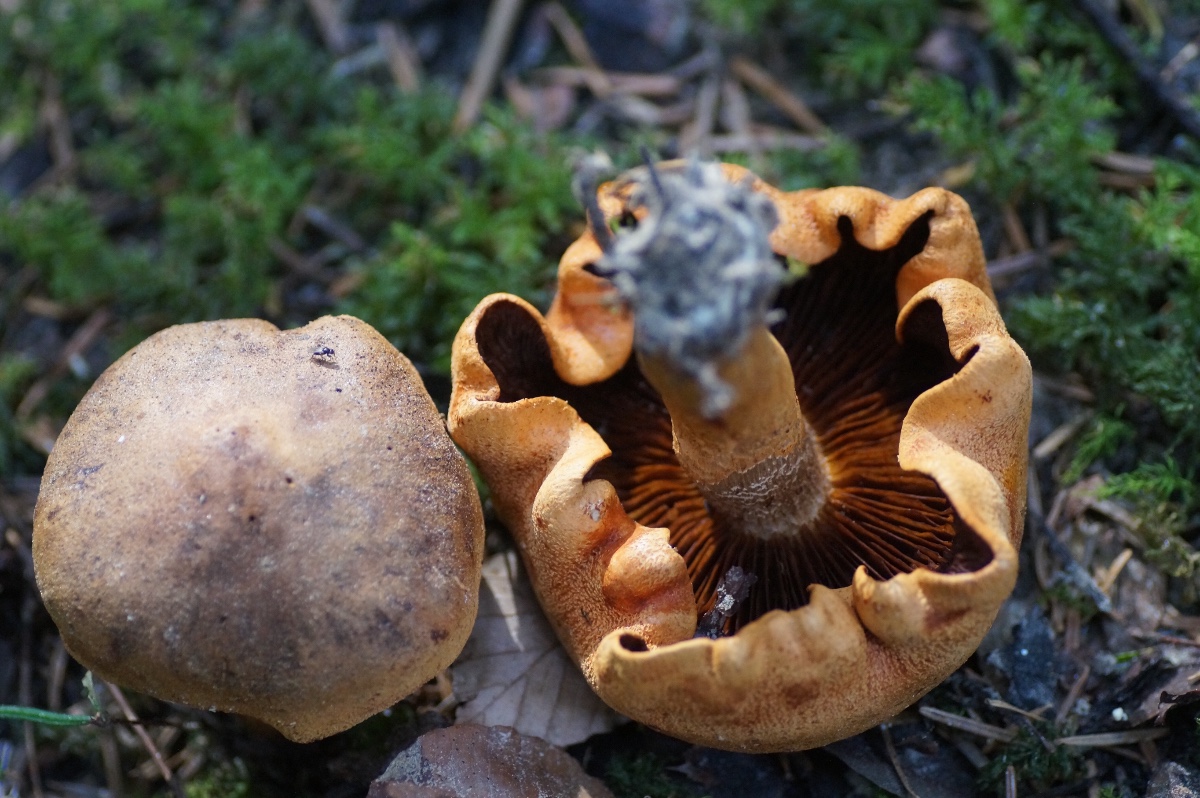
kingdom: Fungi
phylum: Basidiomycota
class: Agaricomycetes
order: Agaricales
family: Tricholomataceae
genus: Tricholoma
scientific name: Tricholoma aurantium
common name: orangegul ridderhat
